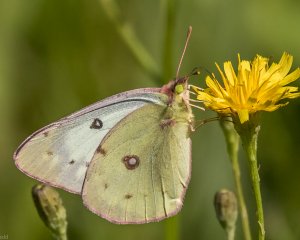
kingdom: Animalia
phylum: Arthropoda
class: Insecta
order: Lepidoptera
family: Pieridae
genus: Colias
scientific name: Colias philodice
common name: Clouded Sulphur
